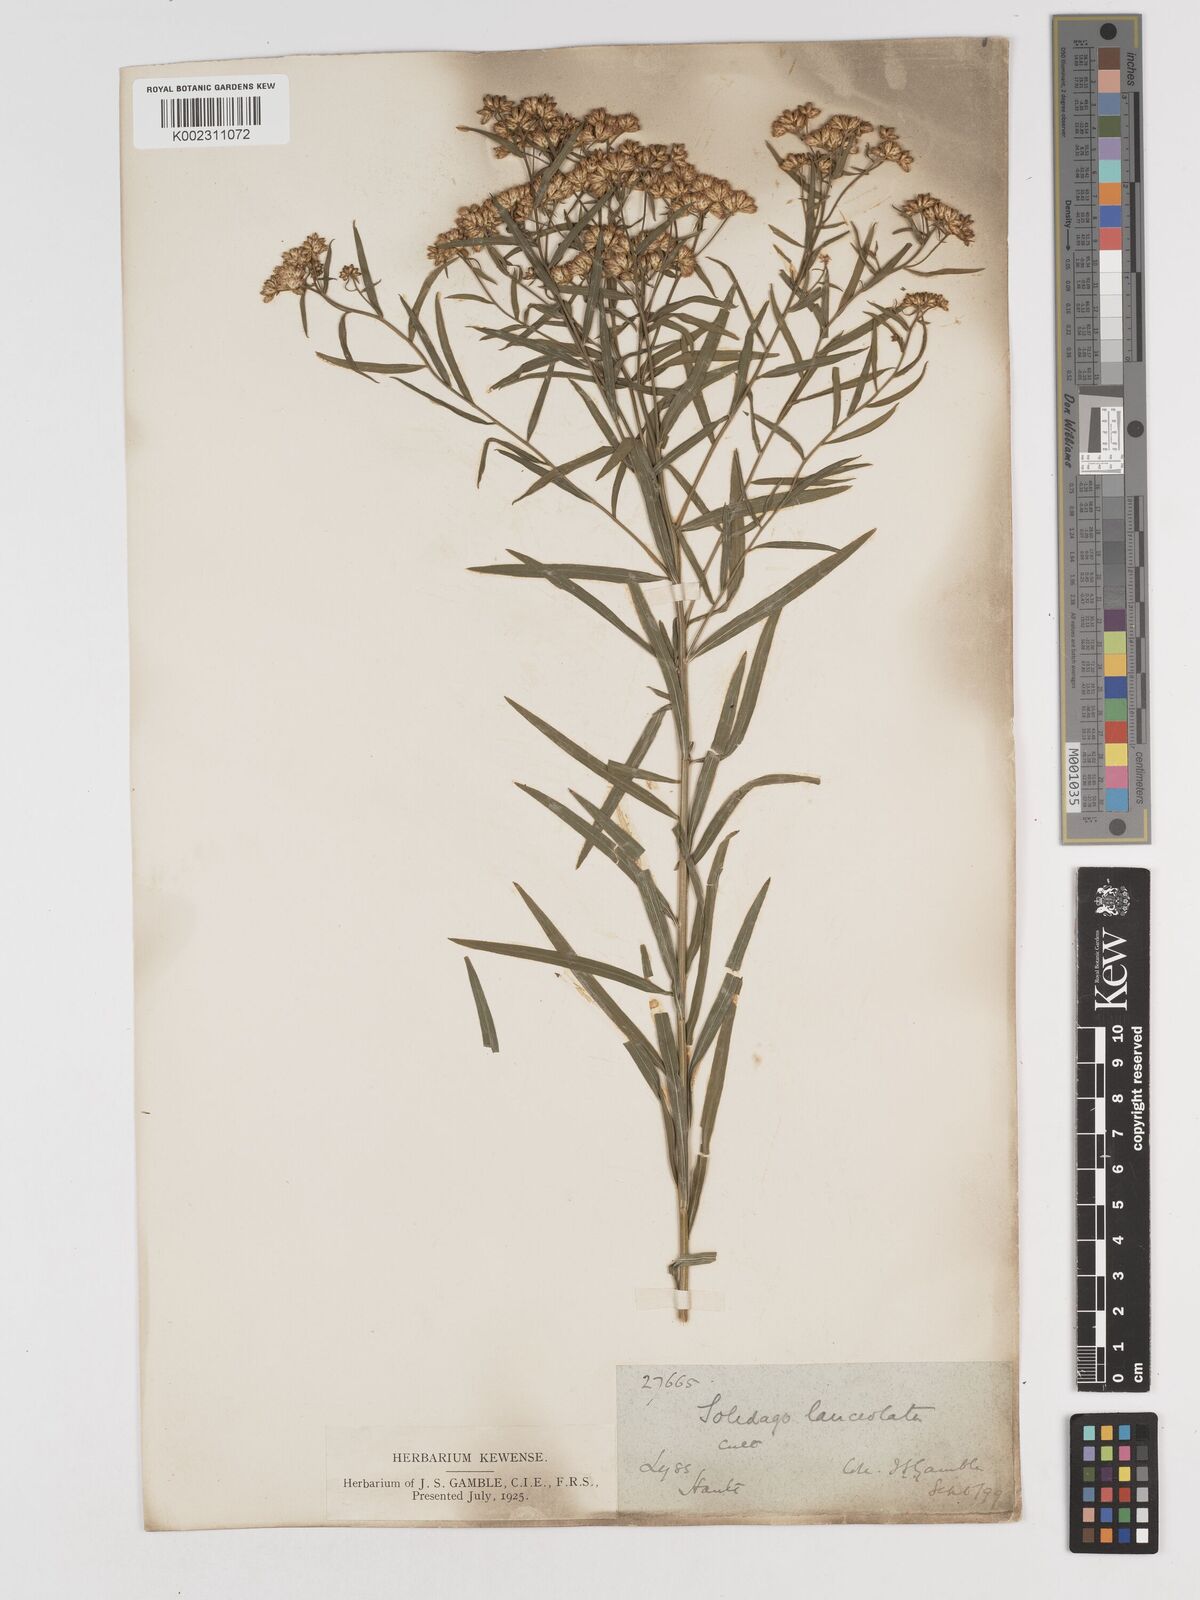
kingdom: Plantae
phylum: Tracheophyta
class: Magnoliopsida
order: Asterales
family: Asteraceae
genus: Euthamia
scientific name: Euthamia lanceolata
